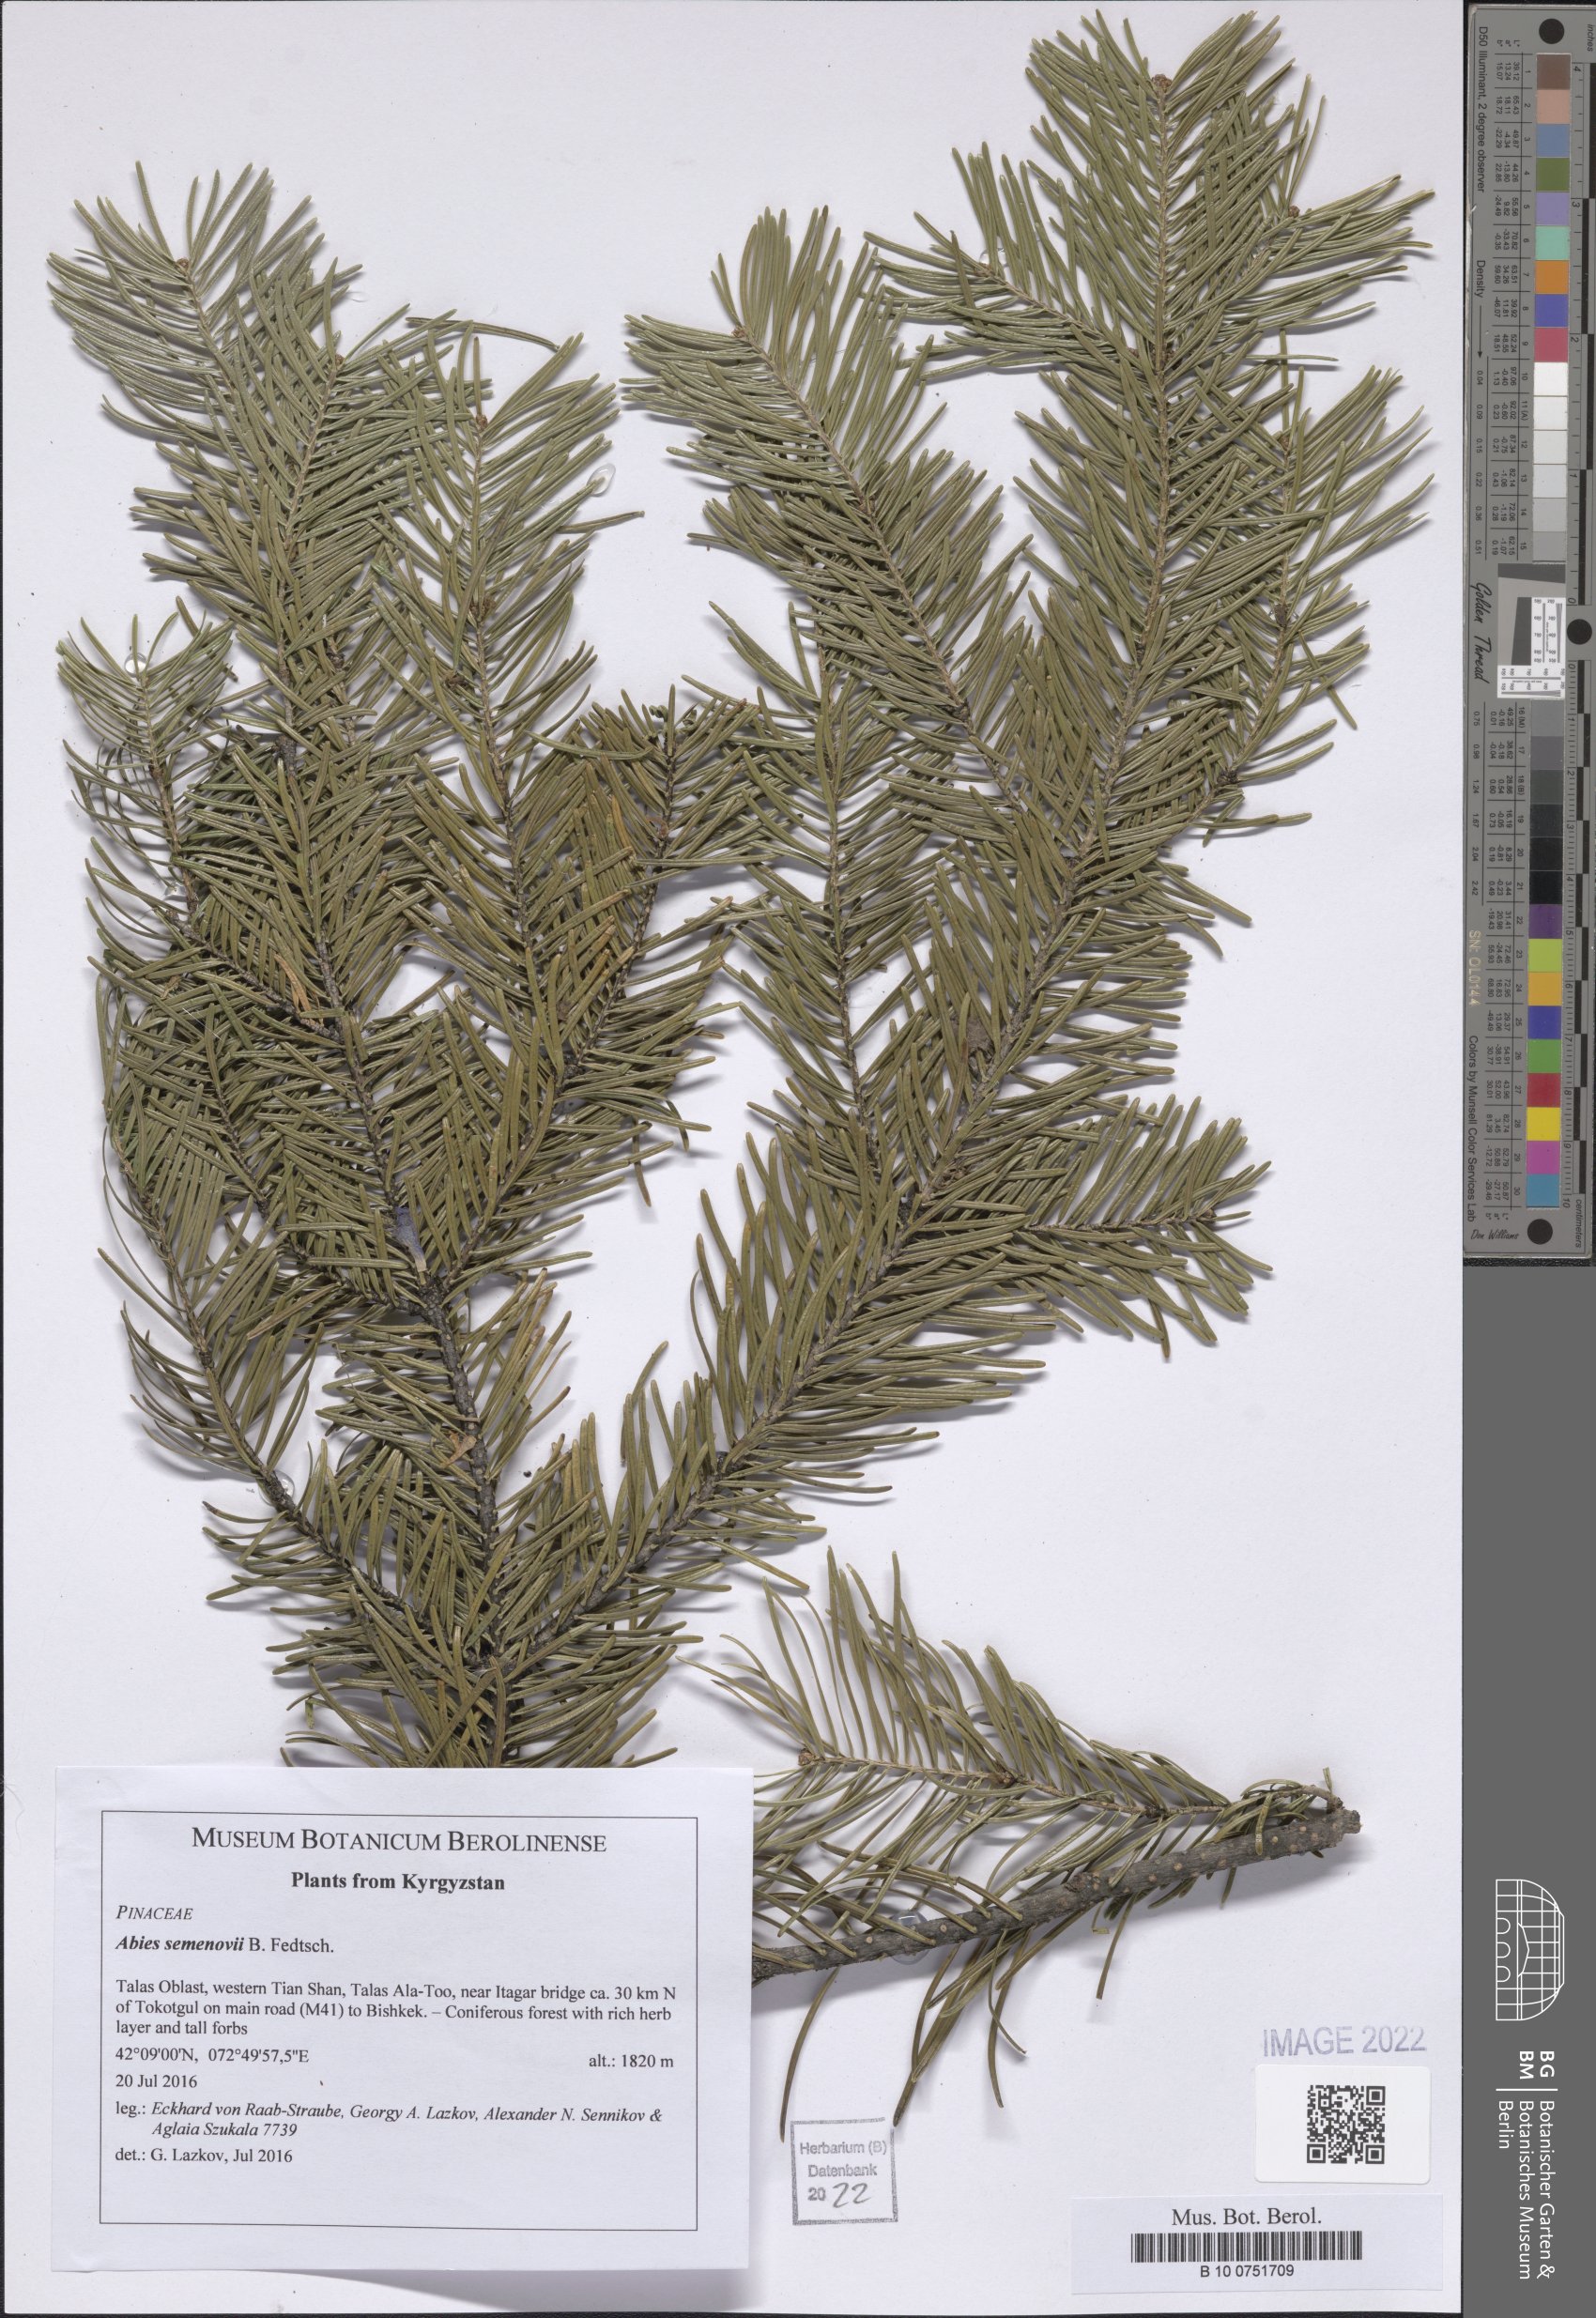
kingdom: Plantae
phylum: Tracheophyta
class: Pinopsida
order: Pinales
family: Pinaceae
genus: Abies
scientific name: Abies sibirica
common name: Siberian fir
